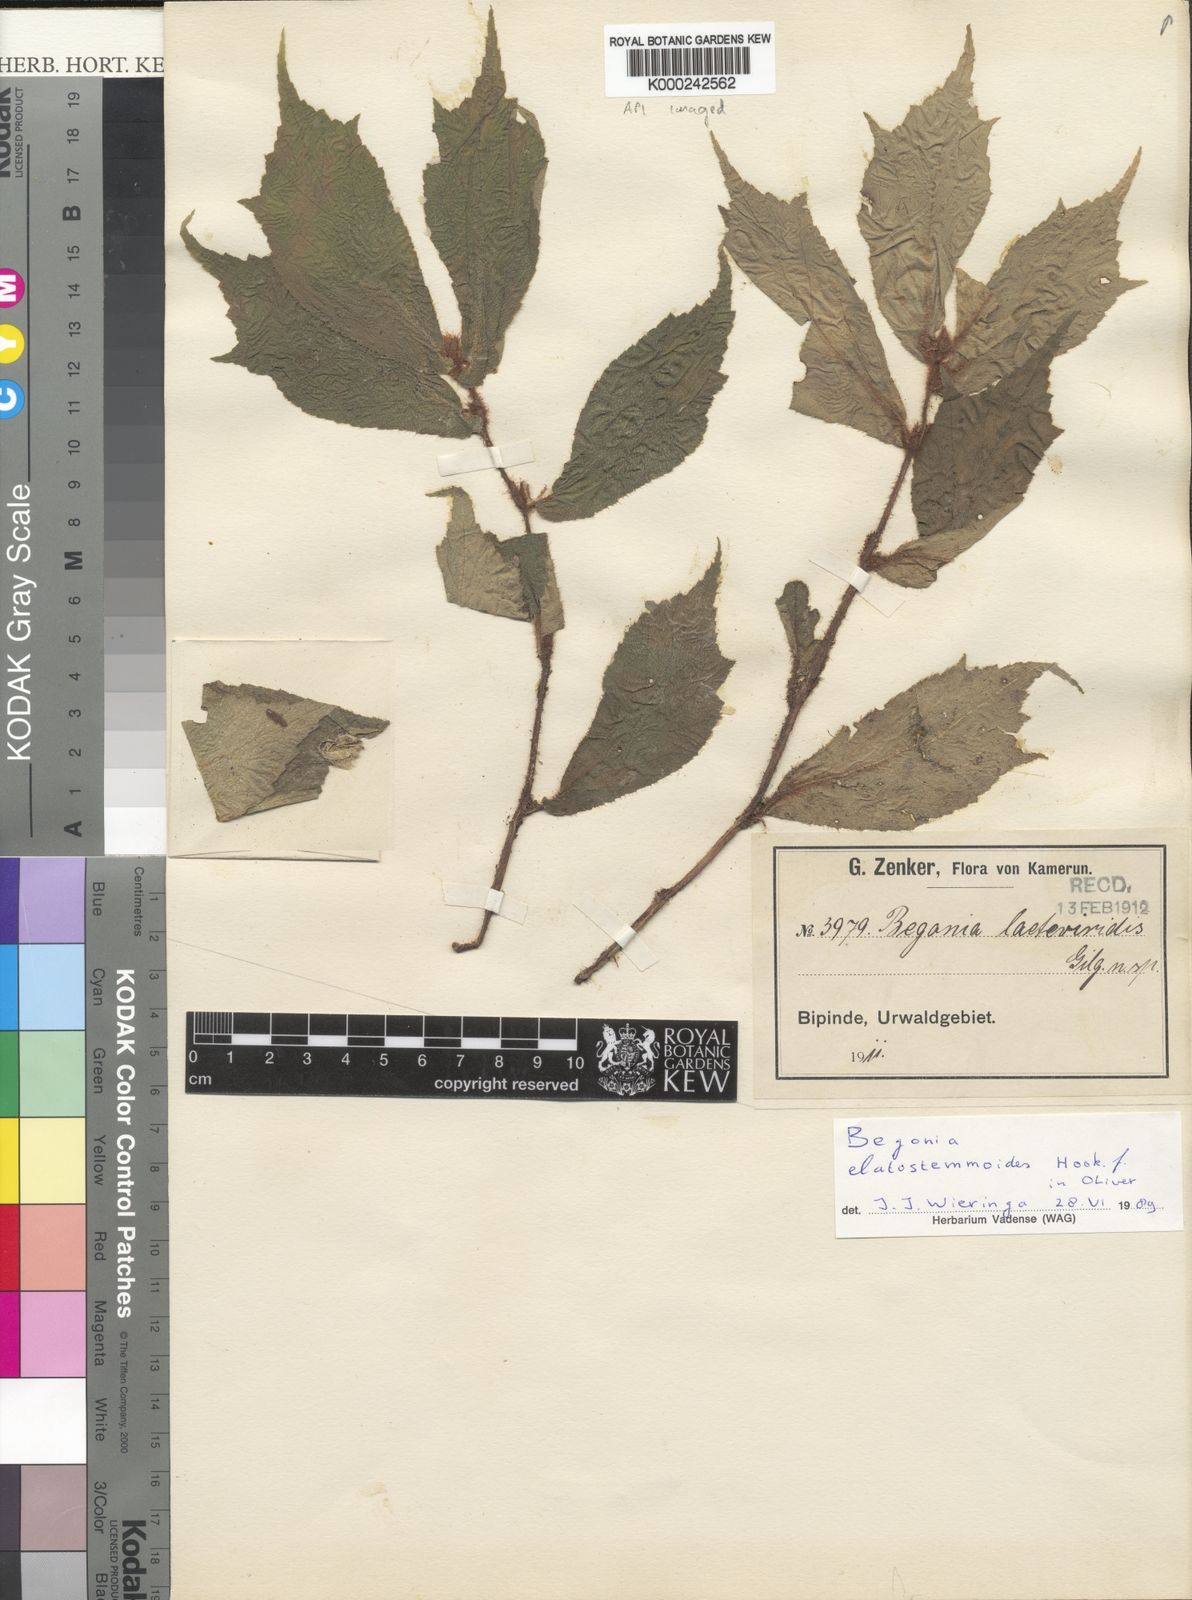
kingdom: Plantae
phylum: Tracheophyta
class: Magnoliopsida
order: Cucurbitales
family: Begoniaceae
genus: Begonia
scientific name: Begonia elatostemmoides
